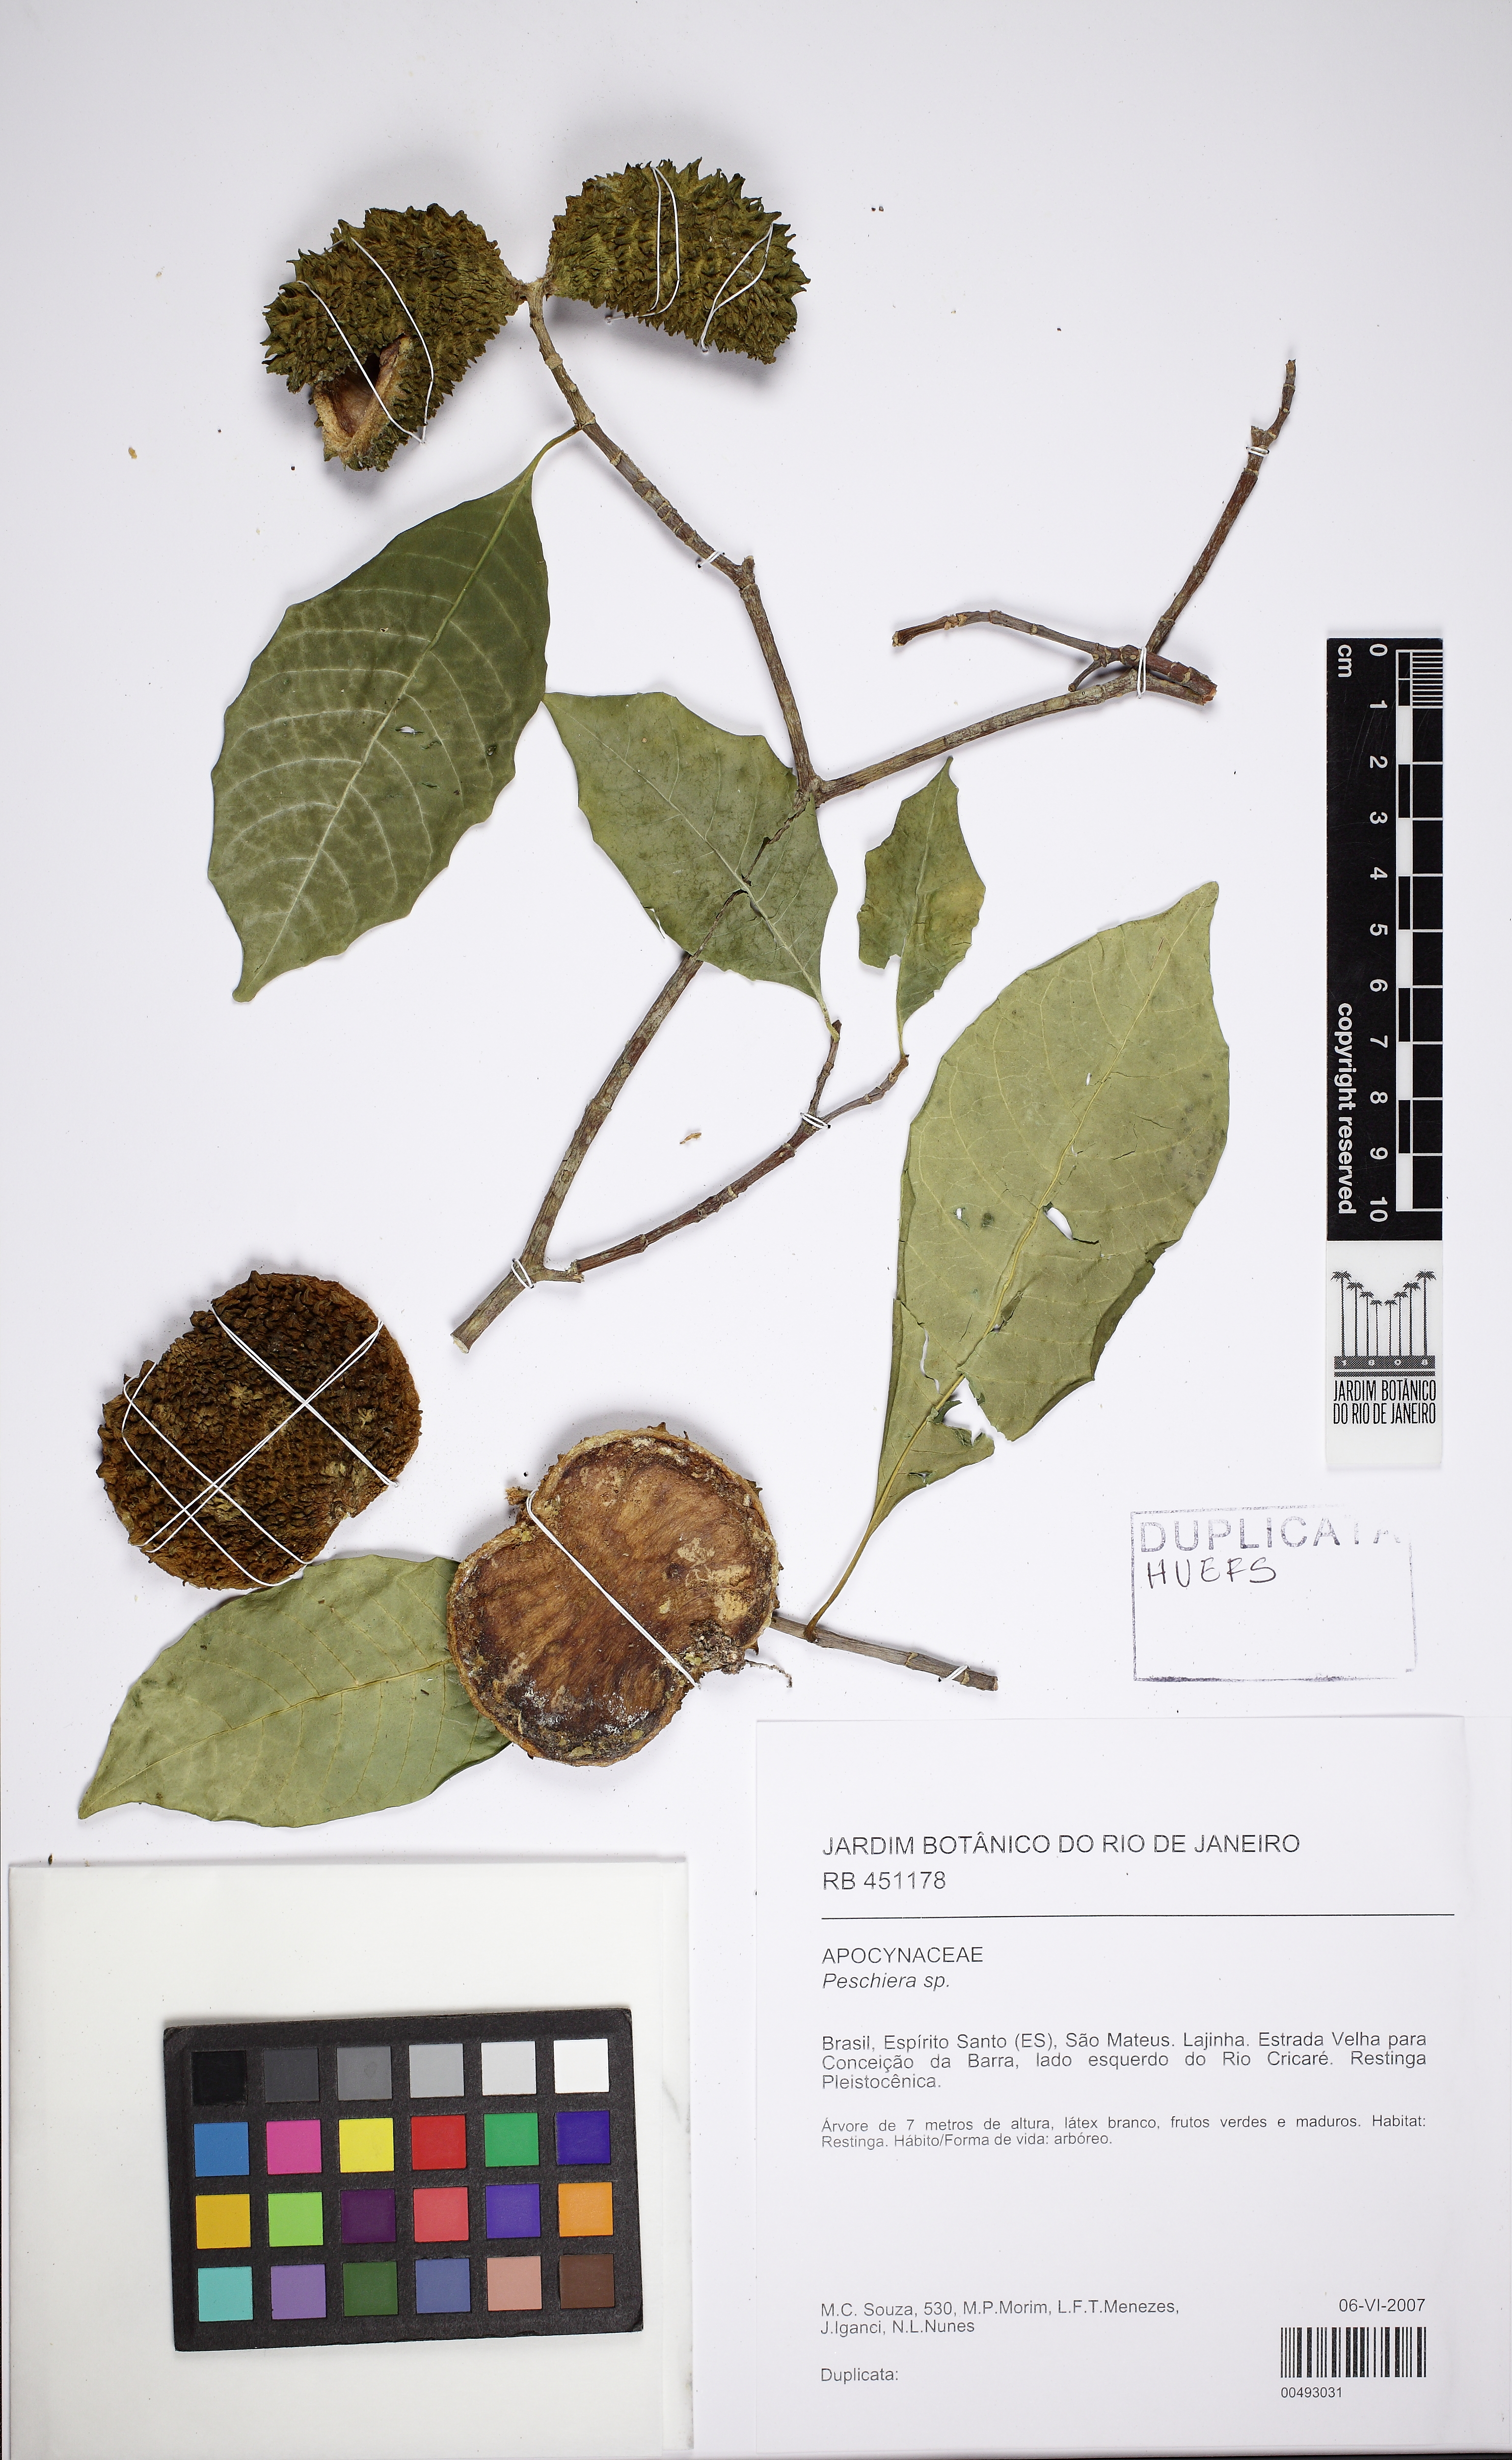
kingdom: Plantae
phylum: Tracheophyta
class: Magnoliopsida
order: Gentianales
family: Apocynaceae
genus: Tabernaemontana
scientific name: Tabernaemontana
